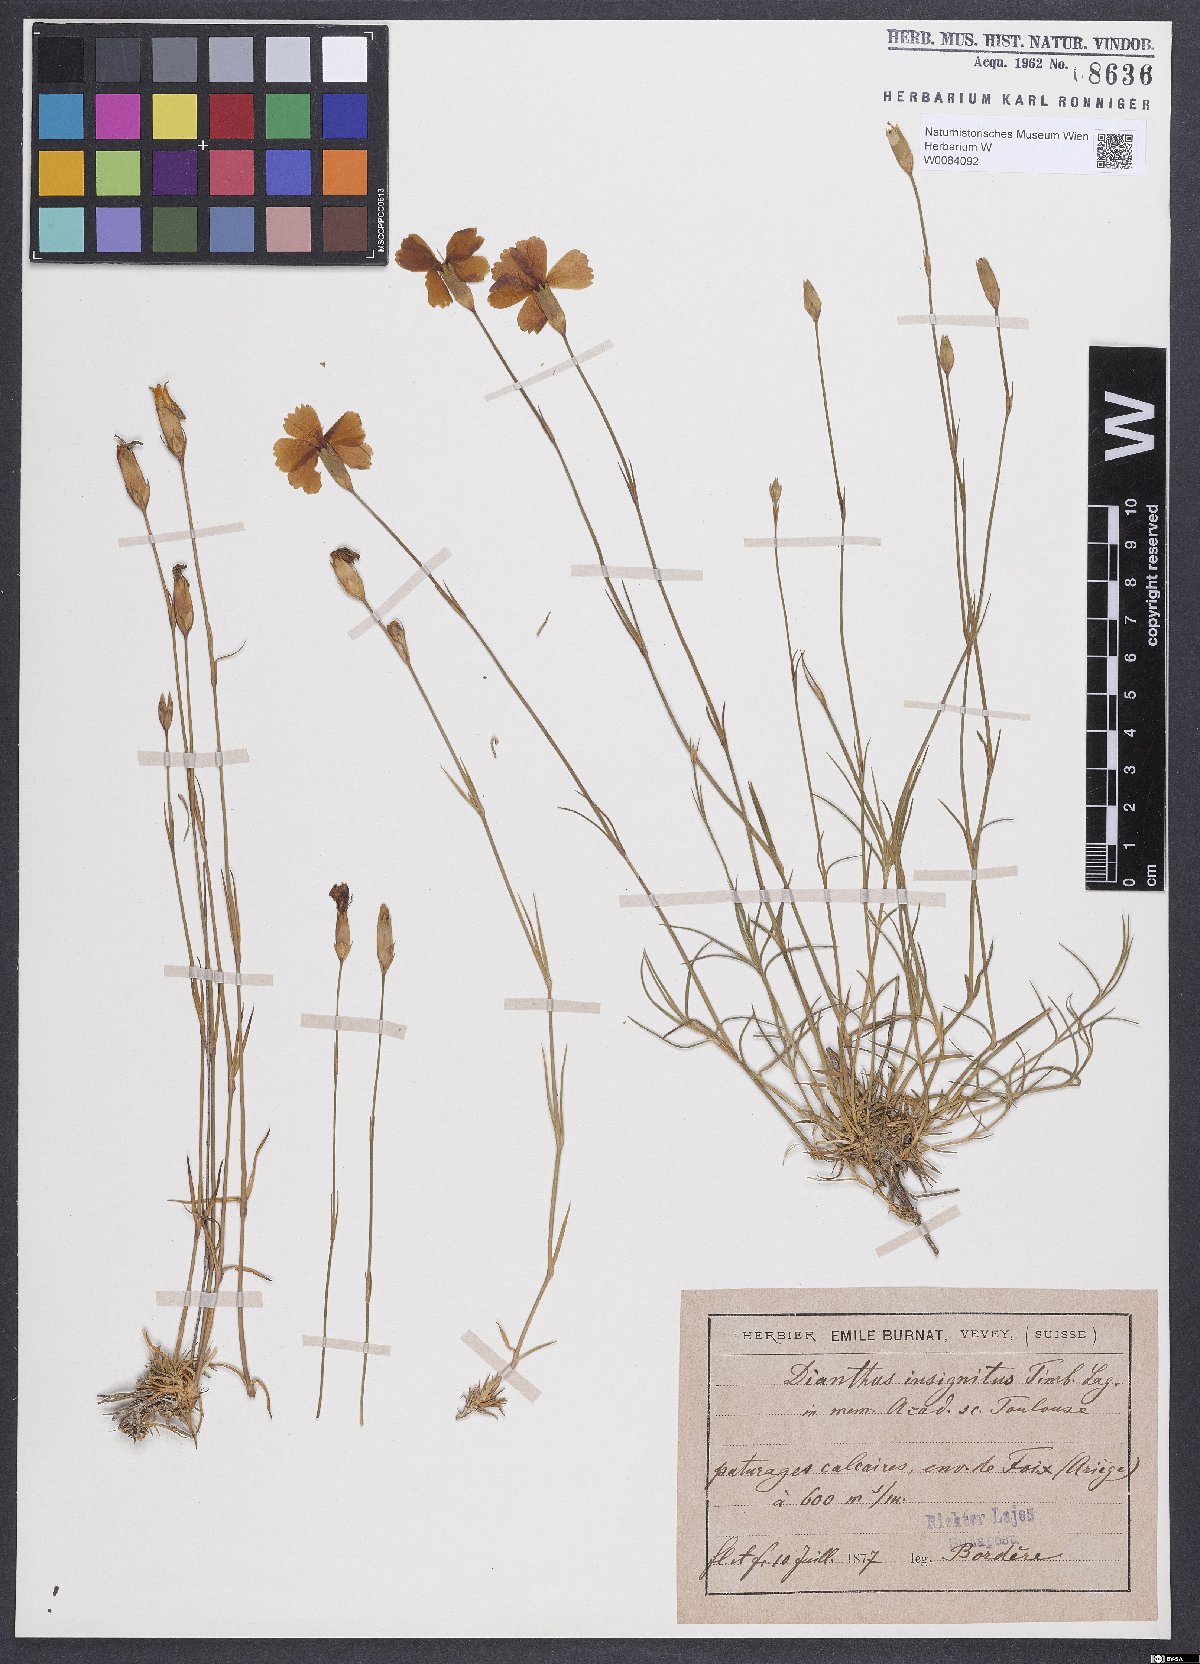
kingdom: Plantae
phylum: Tracheophyta
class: Magnoliopsida
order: Caryophyllales
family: Caryophyllaceae
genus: Dianthus
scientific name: Dianthus pungens
